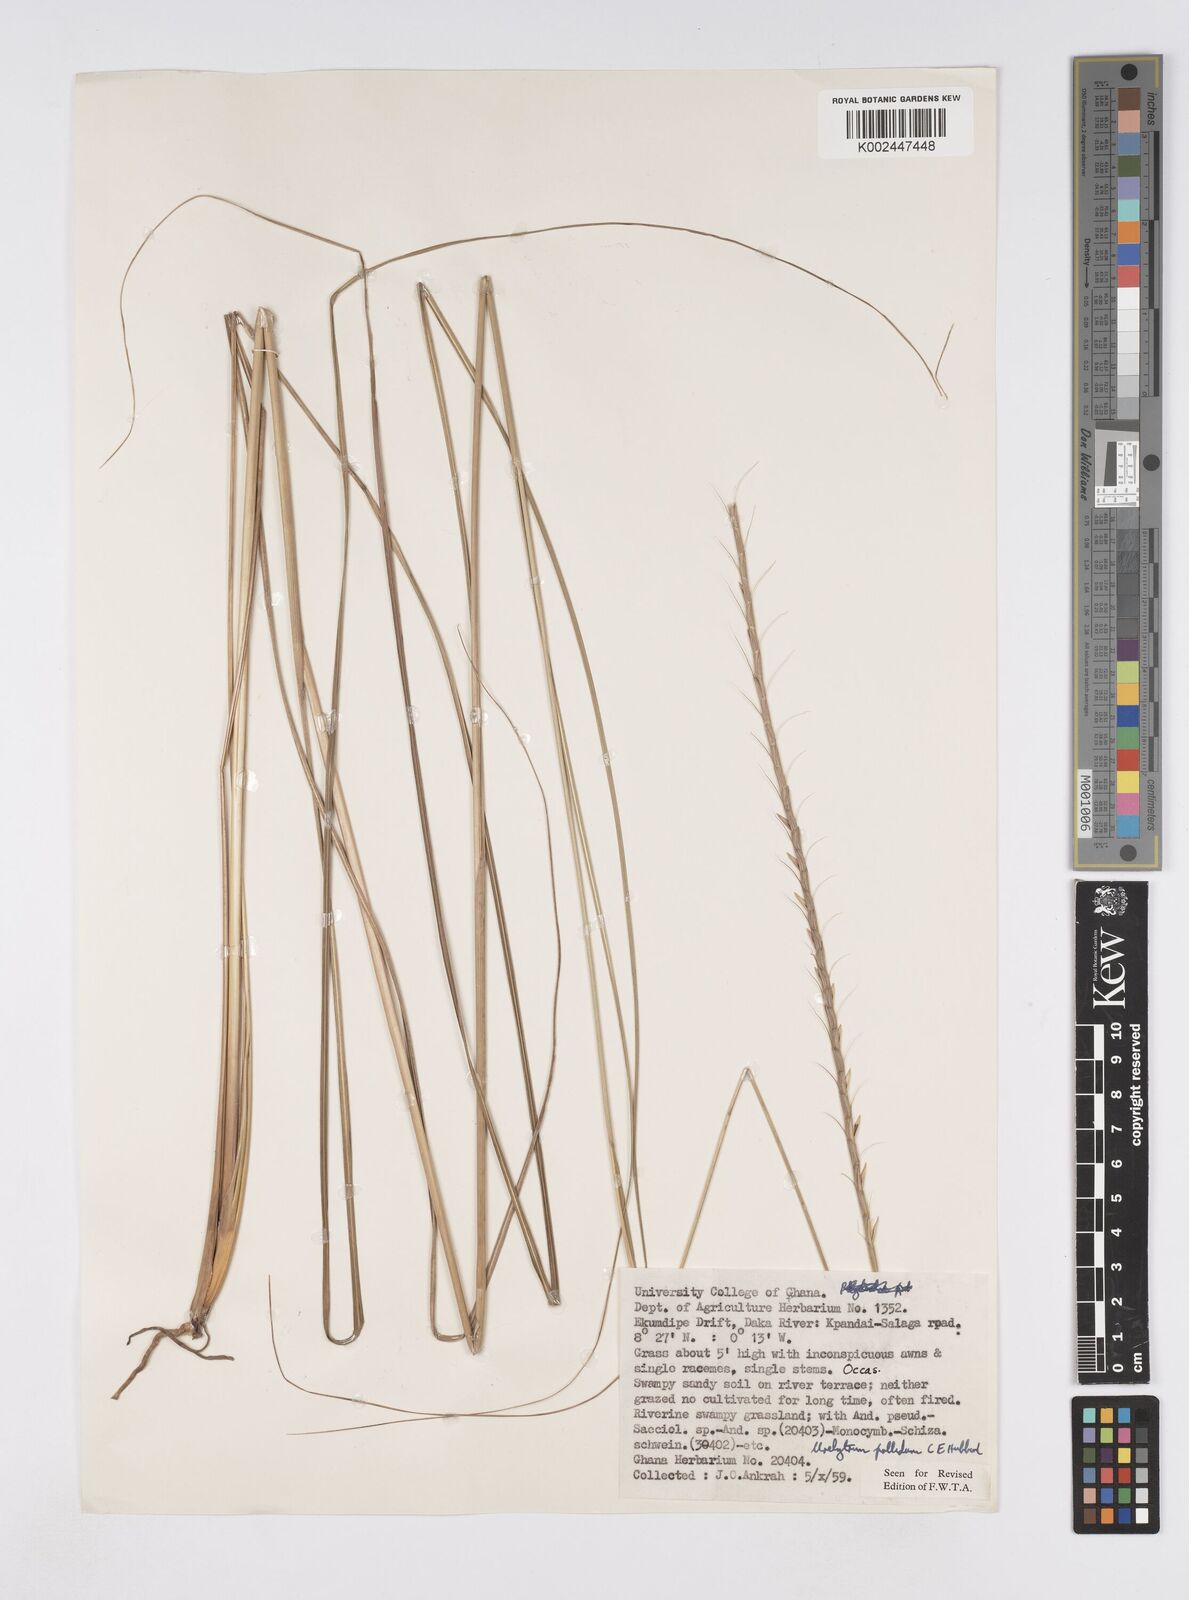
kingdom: Plantae
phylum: Tracheophyta
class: Liliopsida
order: Poales
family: Poaceae
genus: Urelytrum
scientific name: Urelytrum agropyroides
